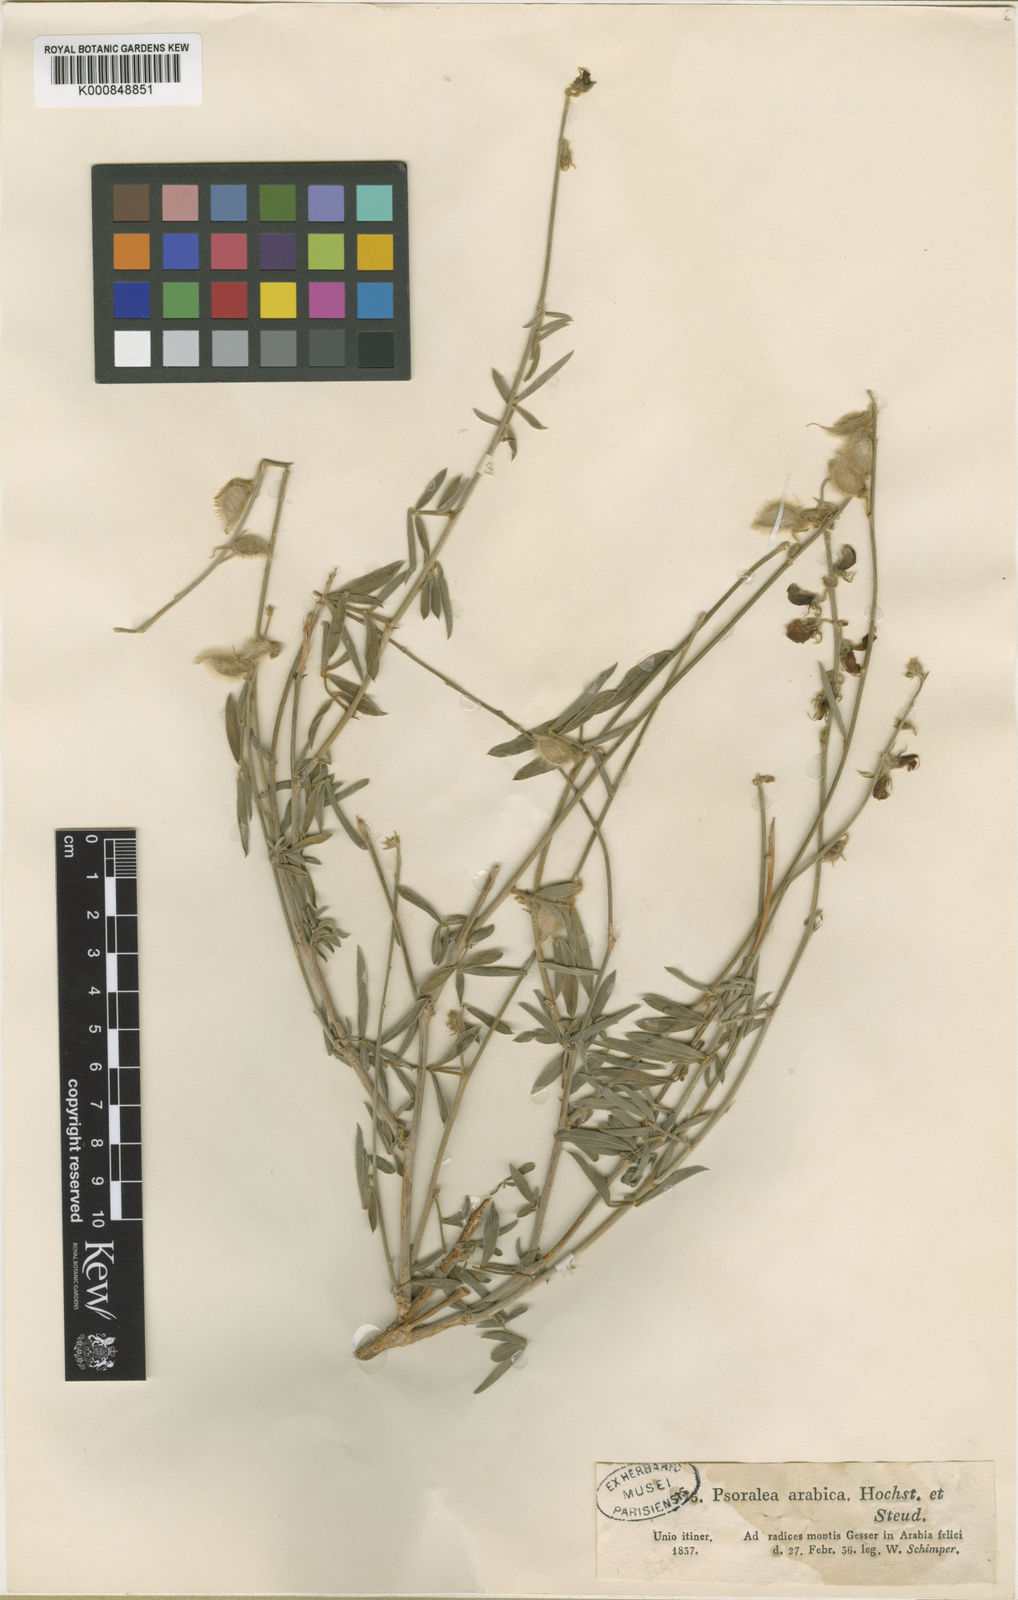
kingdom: Plantae
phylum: Tracheophyta
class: Magnoliopsida
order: Fabales
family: Fabaceae
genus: Tephrosia
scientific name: Tephrosia nubica
